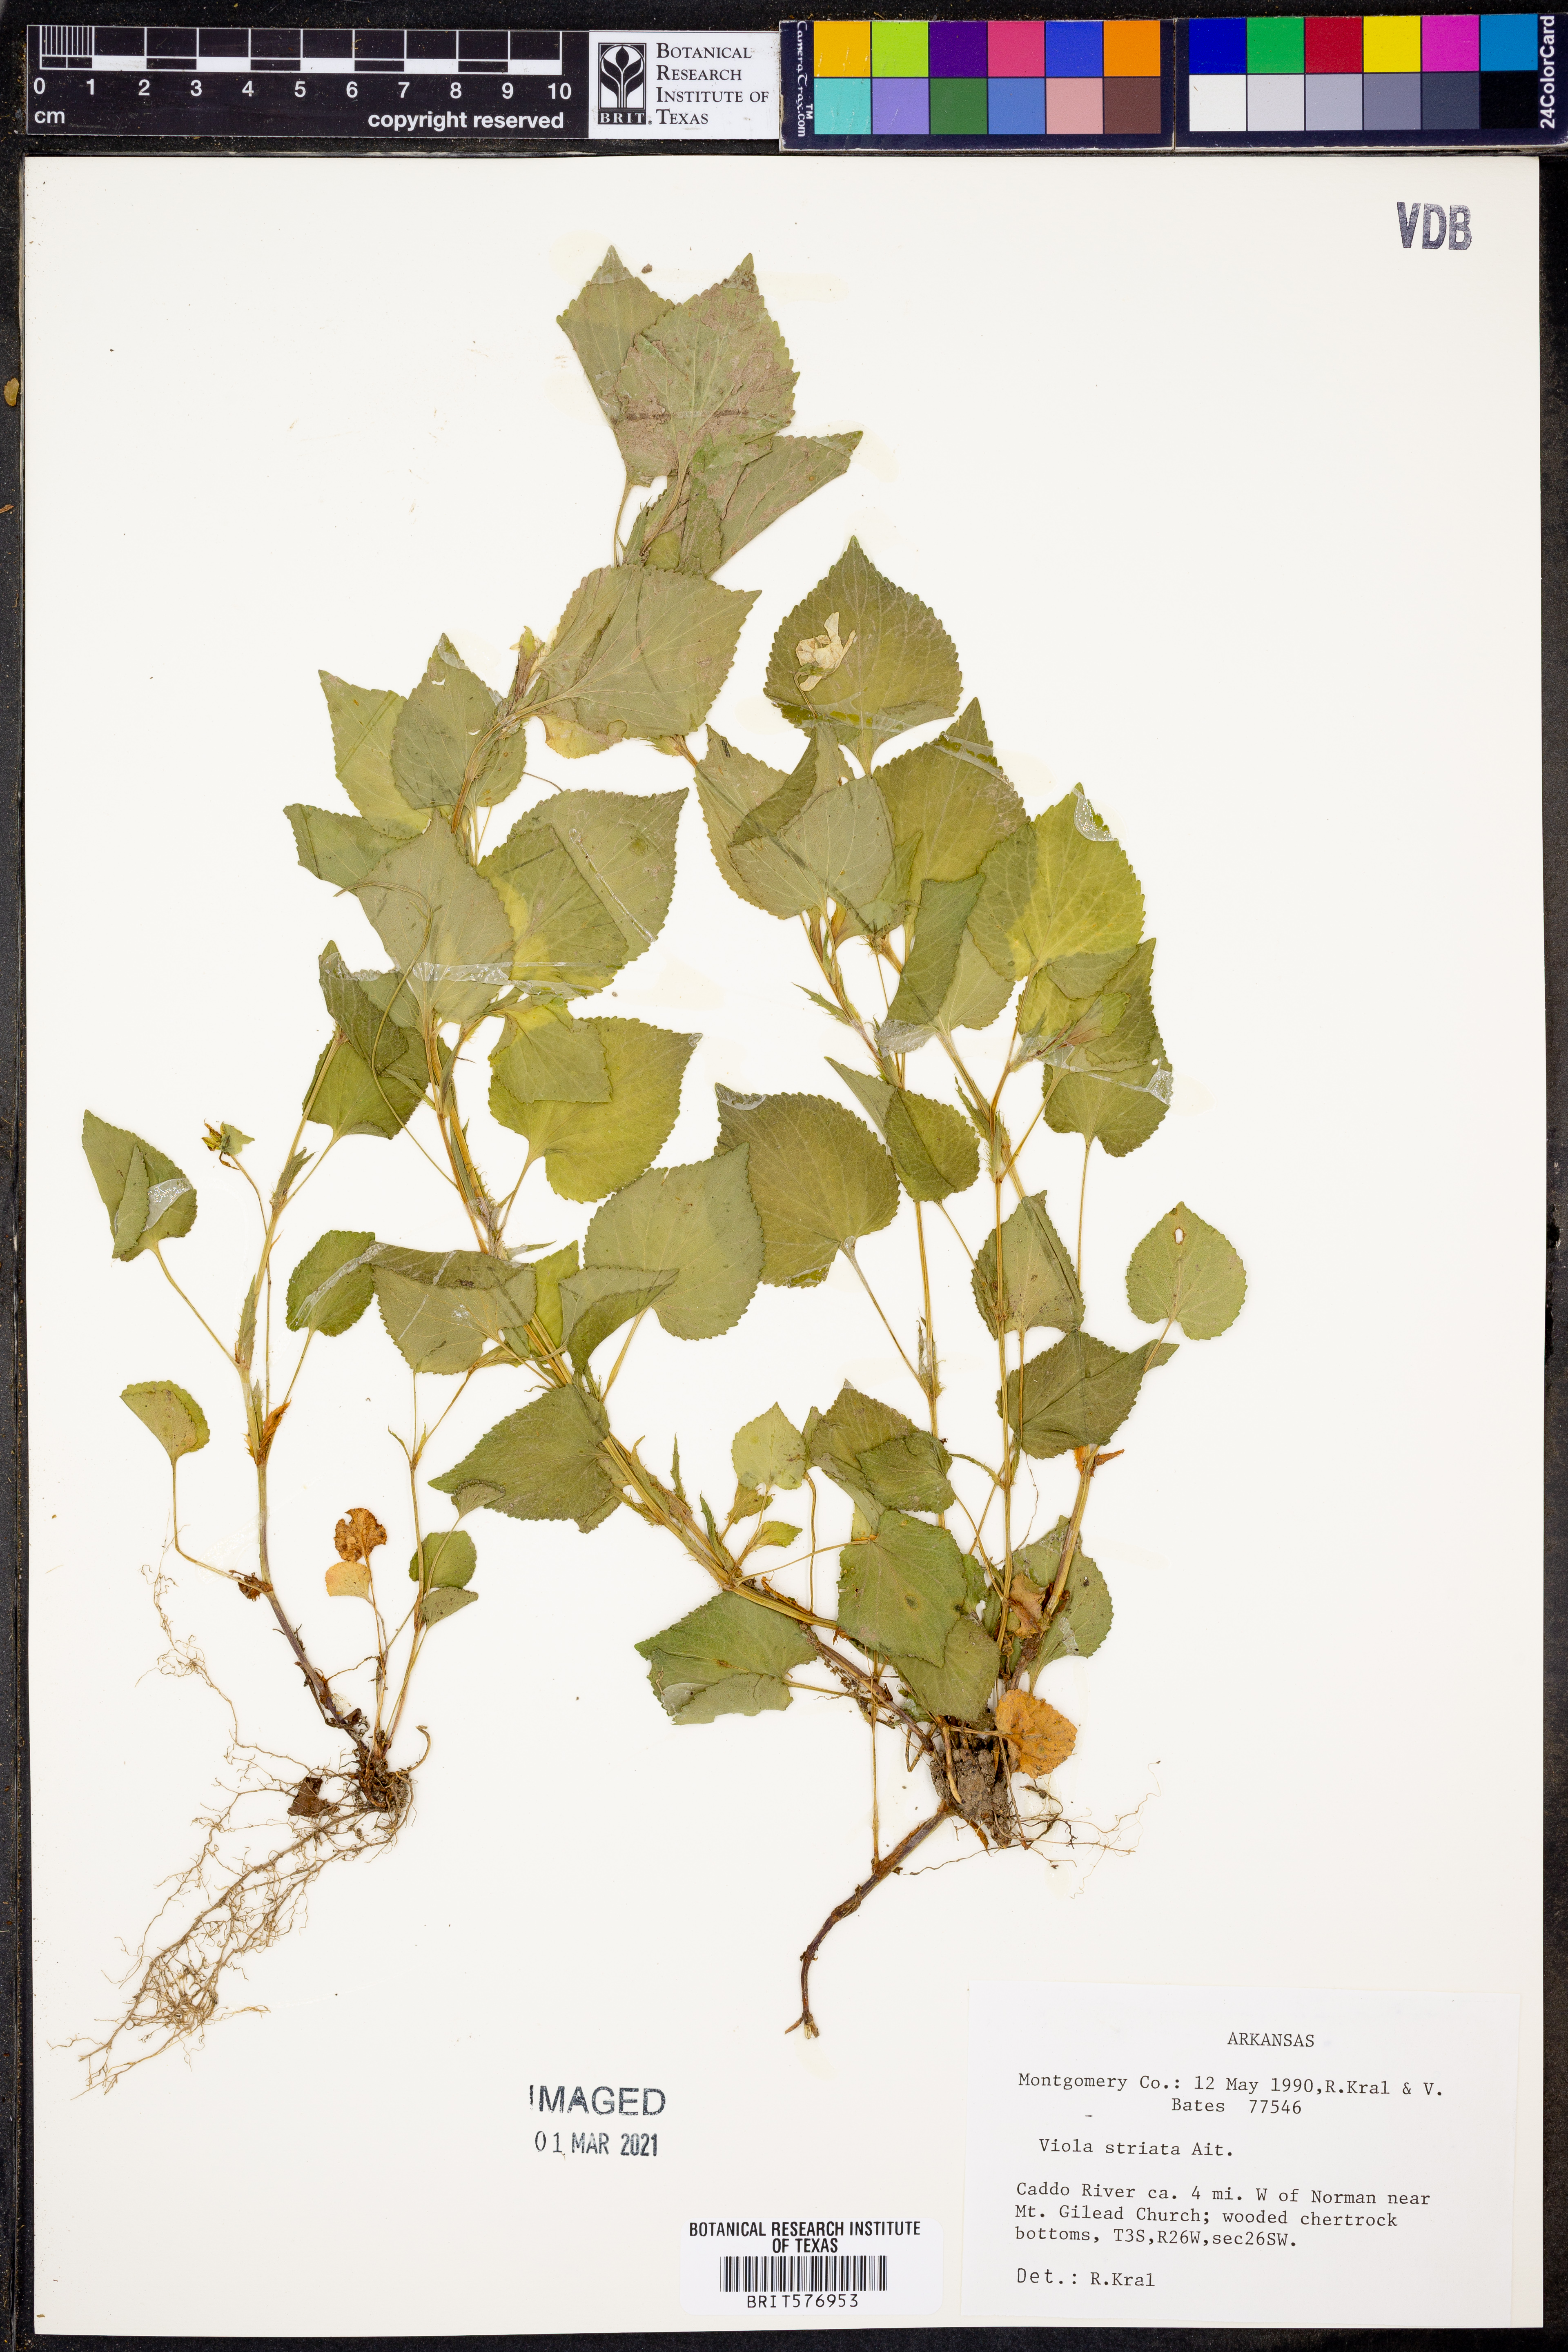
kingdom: Plantae
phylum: Tracheophyta
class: Magnoliopsida
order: Malpighiales
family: Violaceae
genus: Viola
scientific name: Viola striata
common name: Cream violet
